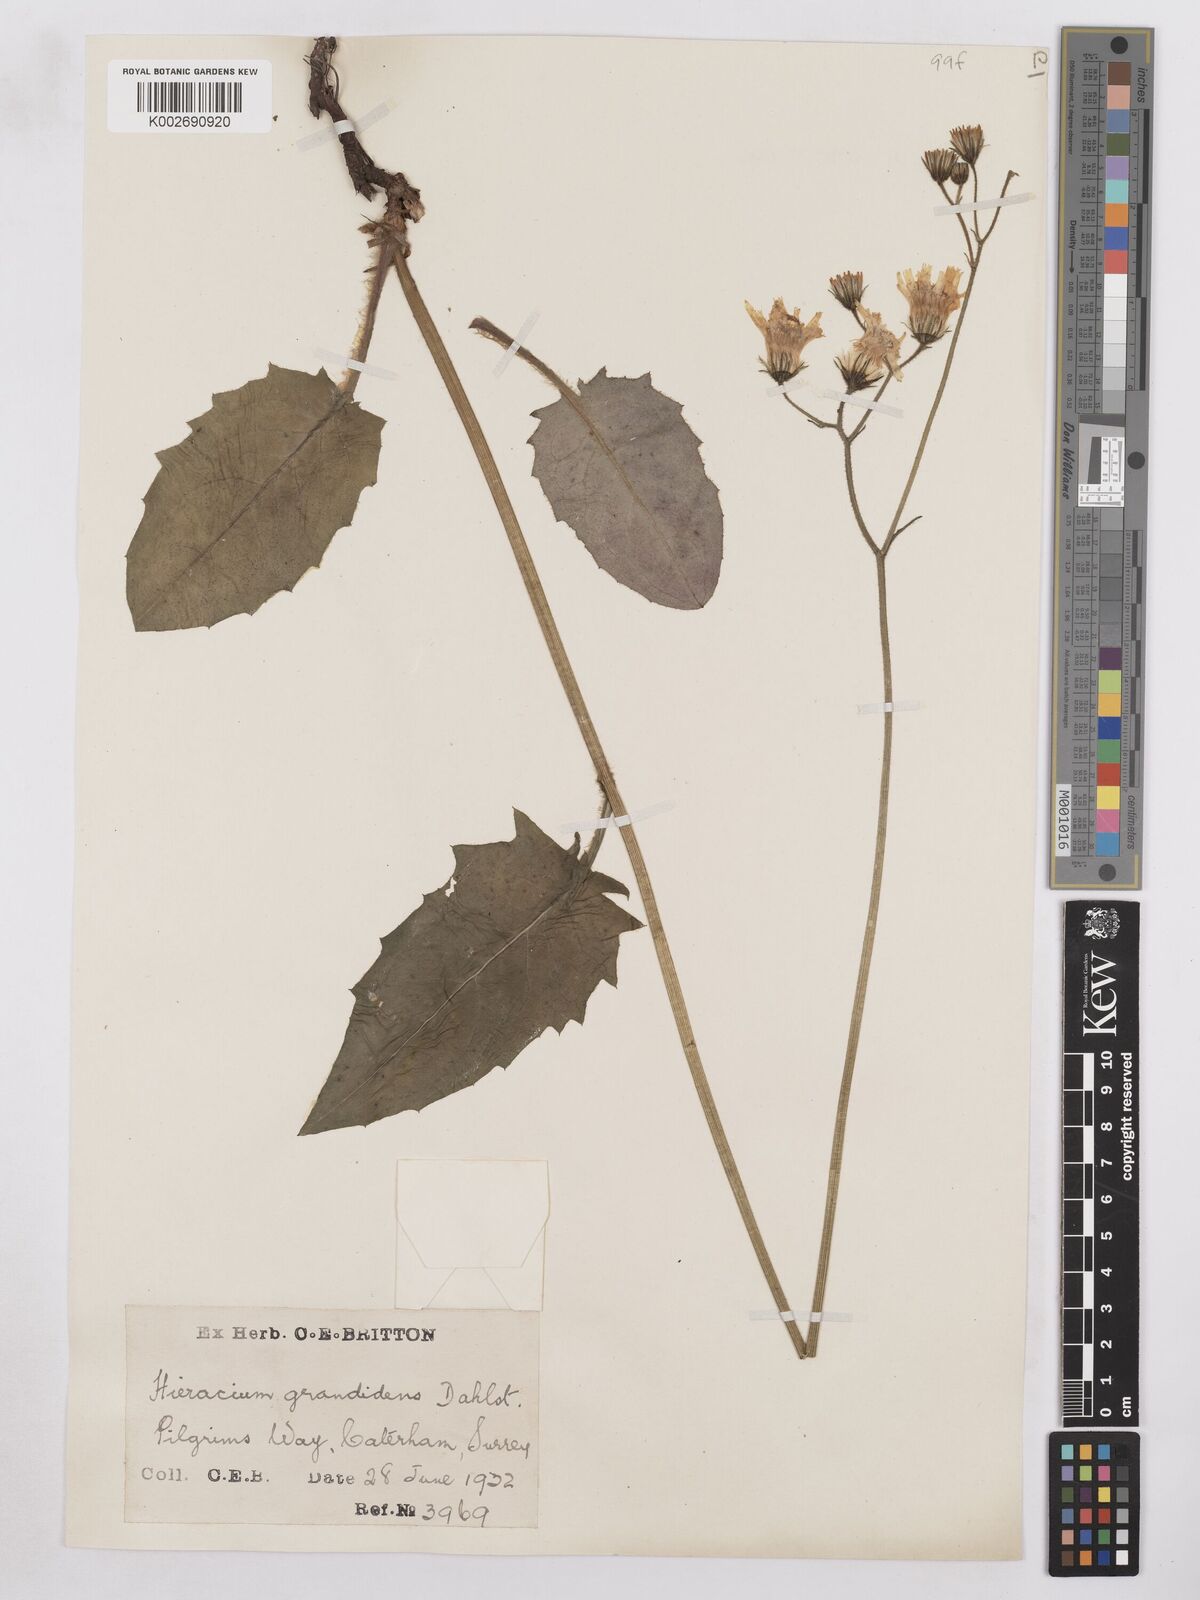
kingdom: Plantae
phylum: Tracheophyta
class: Magnoliopsida
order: Asterales
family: Asteraceae
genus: Hieracium
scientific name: Hieracium murorum
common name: Wall hawkweed
